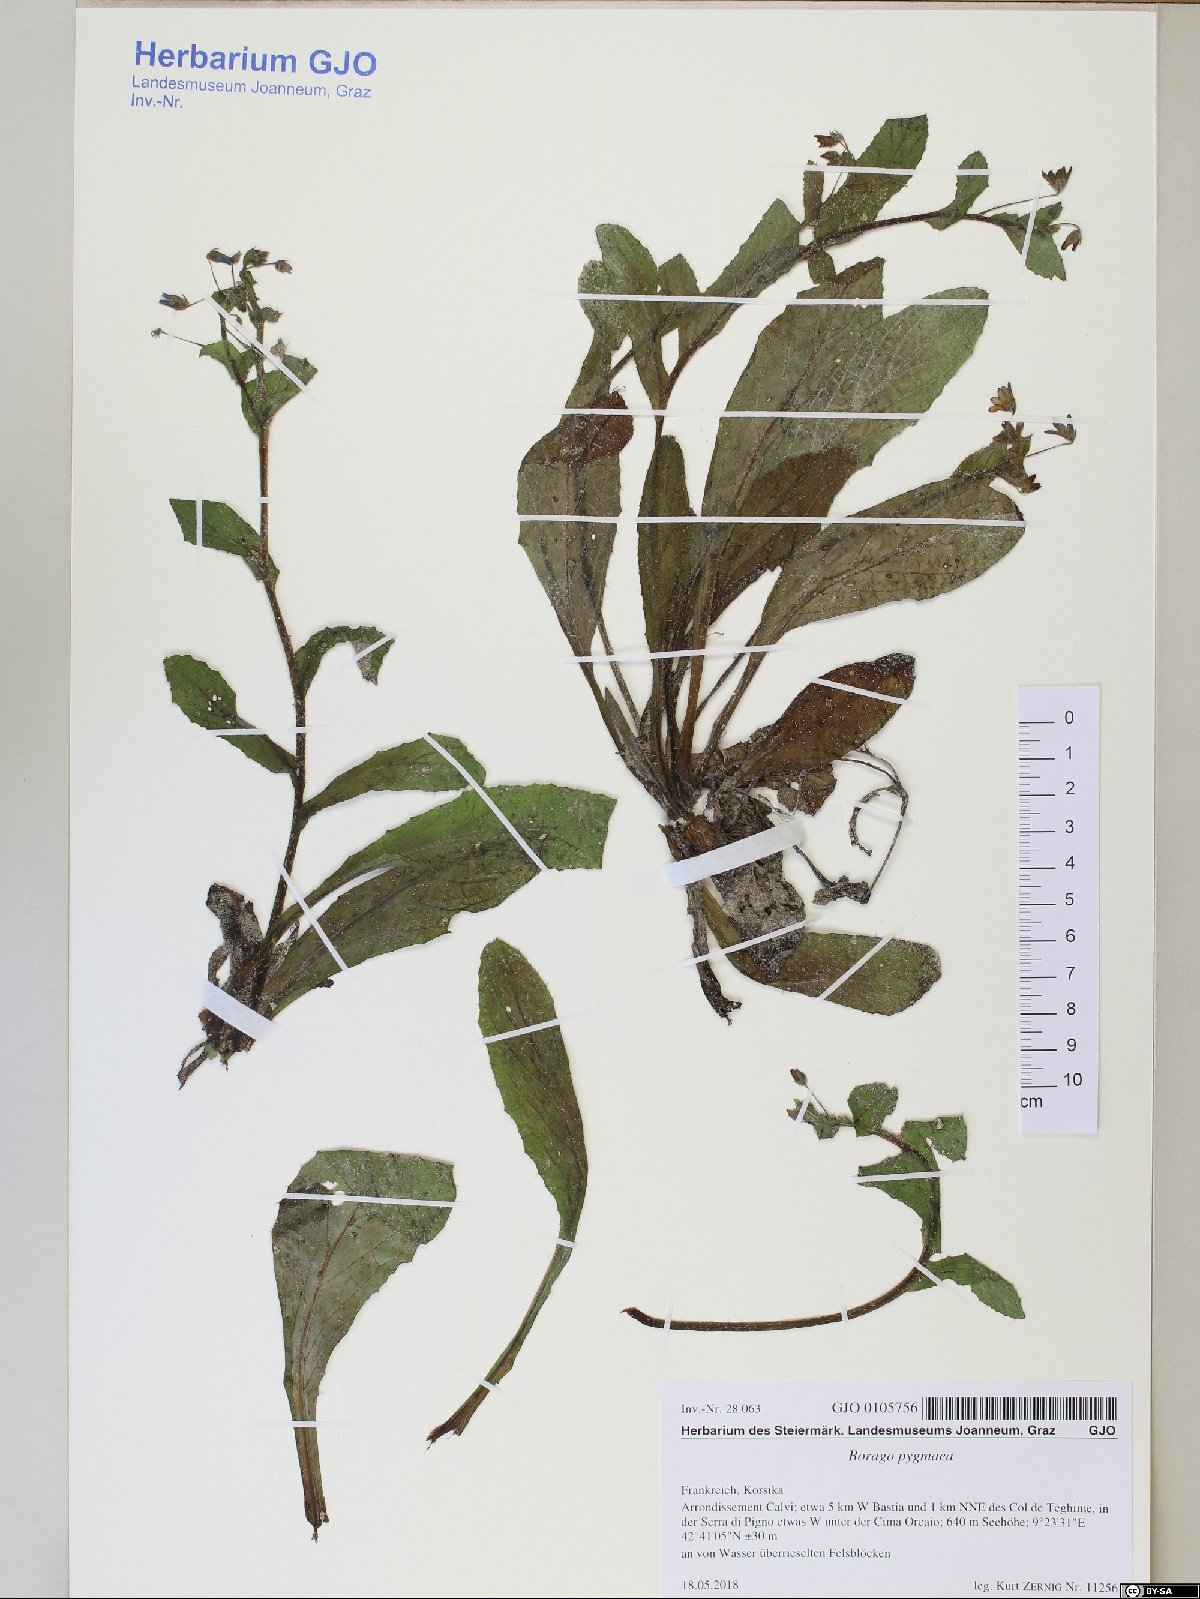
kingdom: Plantae
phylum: Tracheophyta
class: Magnoliopsida
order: Boraginales
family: Boraginaceae
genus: Borago
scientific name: Borago pygmaea
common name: Slender borage
